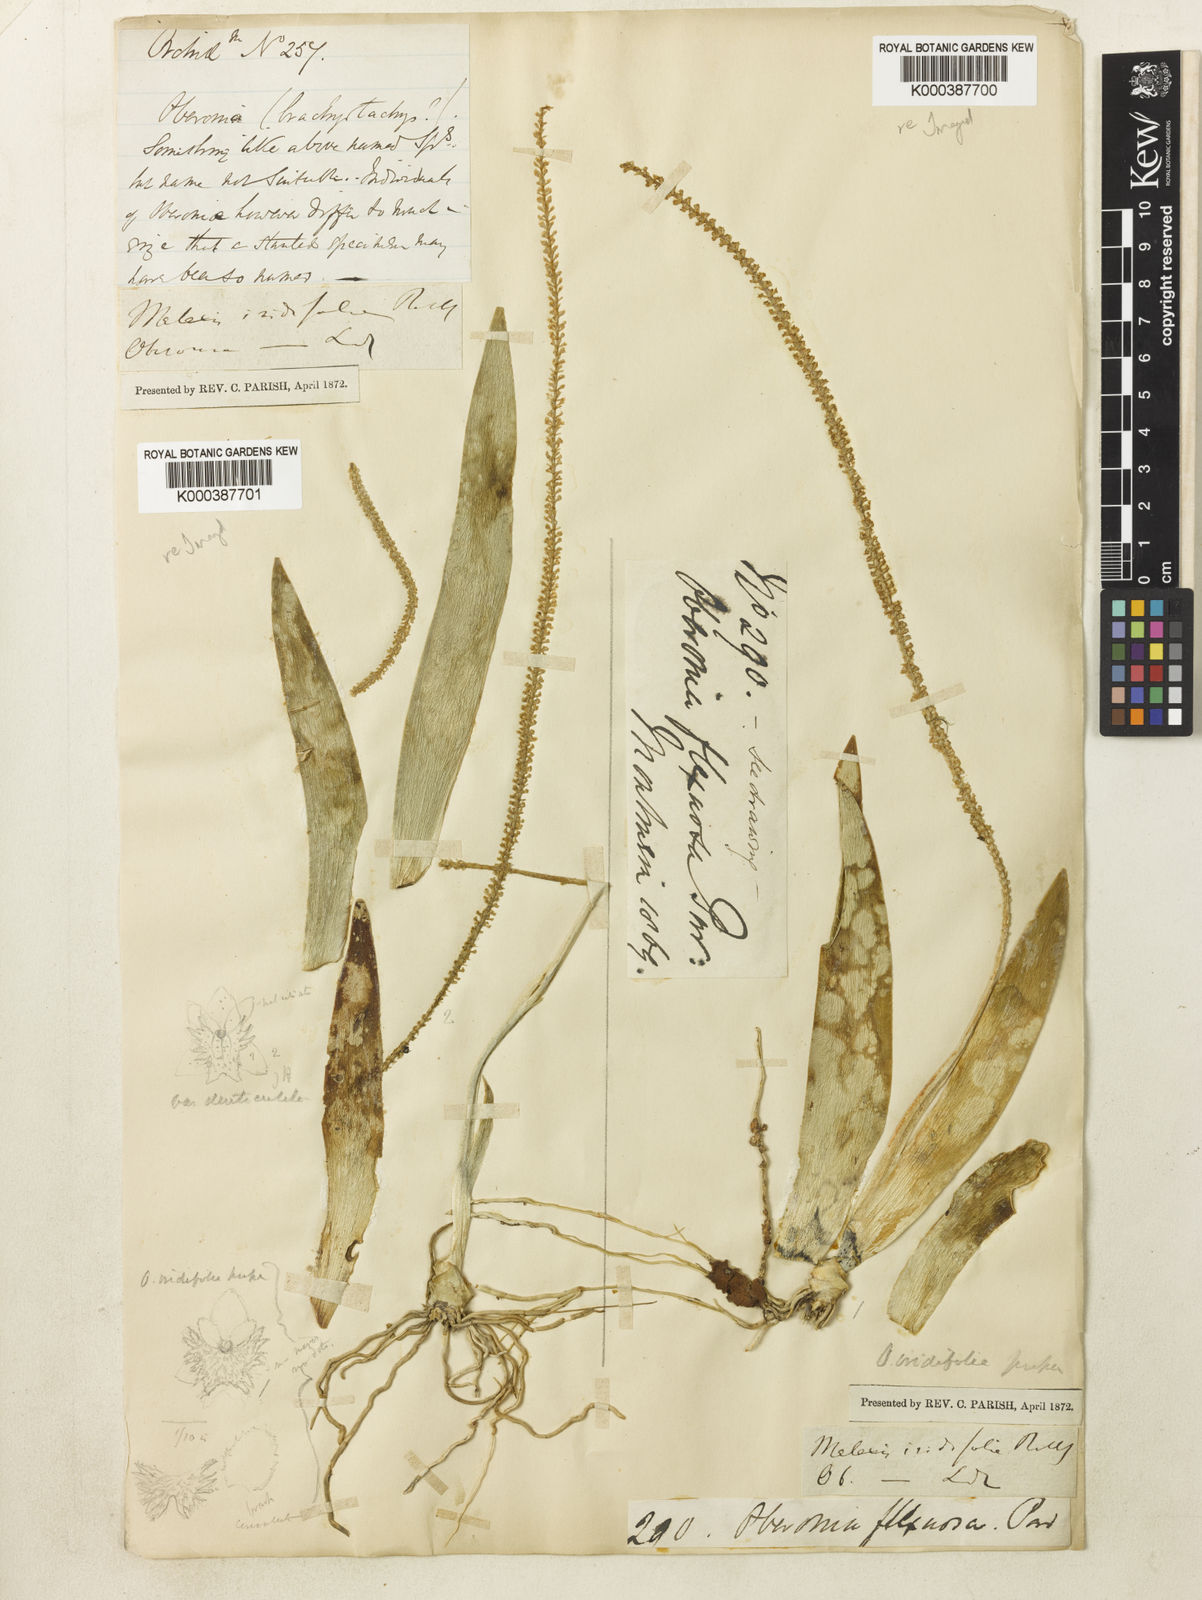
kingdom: Plantae
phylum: Tracheophyta
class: Liliopsida
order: Asparagales
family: Orchidaceae
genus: Oberonia
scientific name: Oberonia
